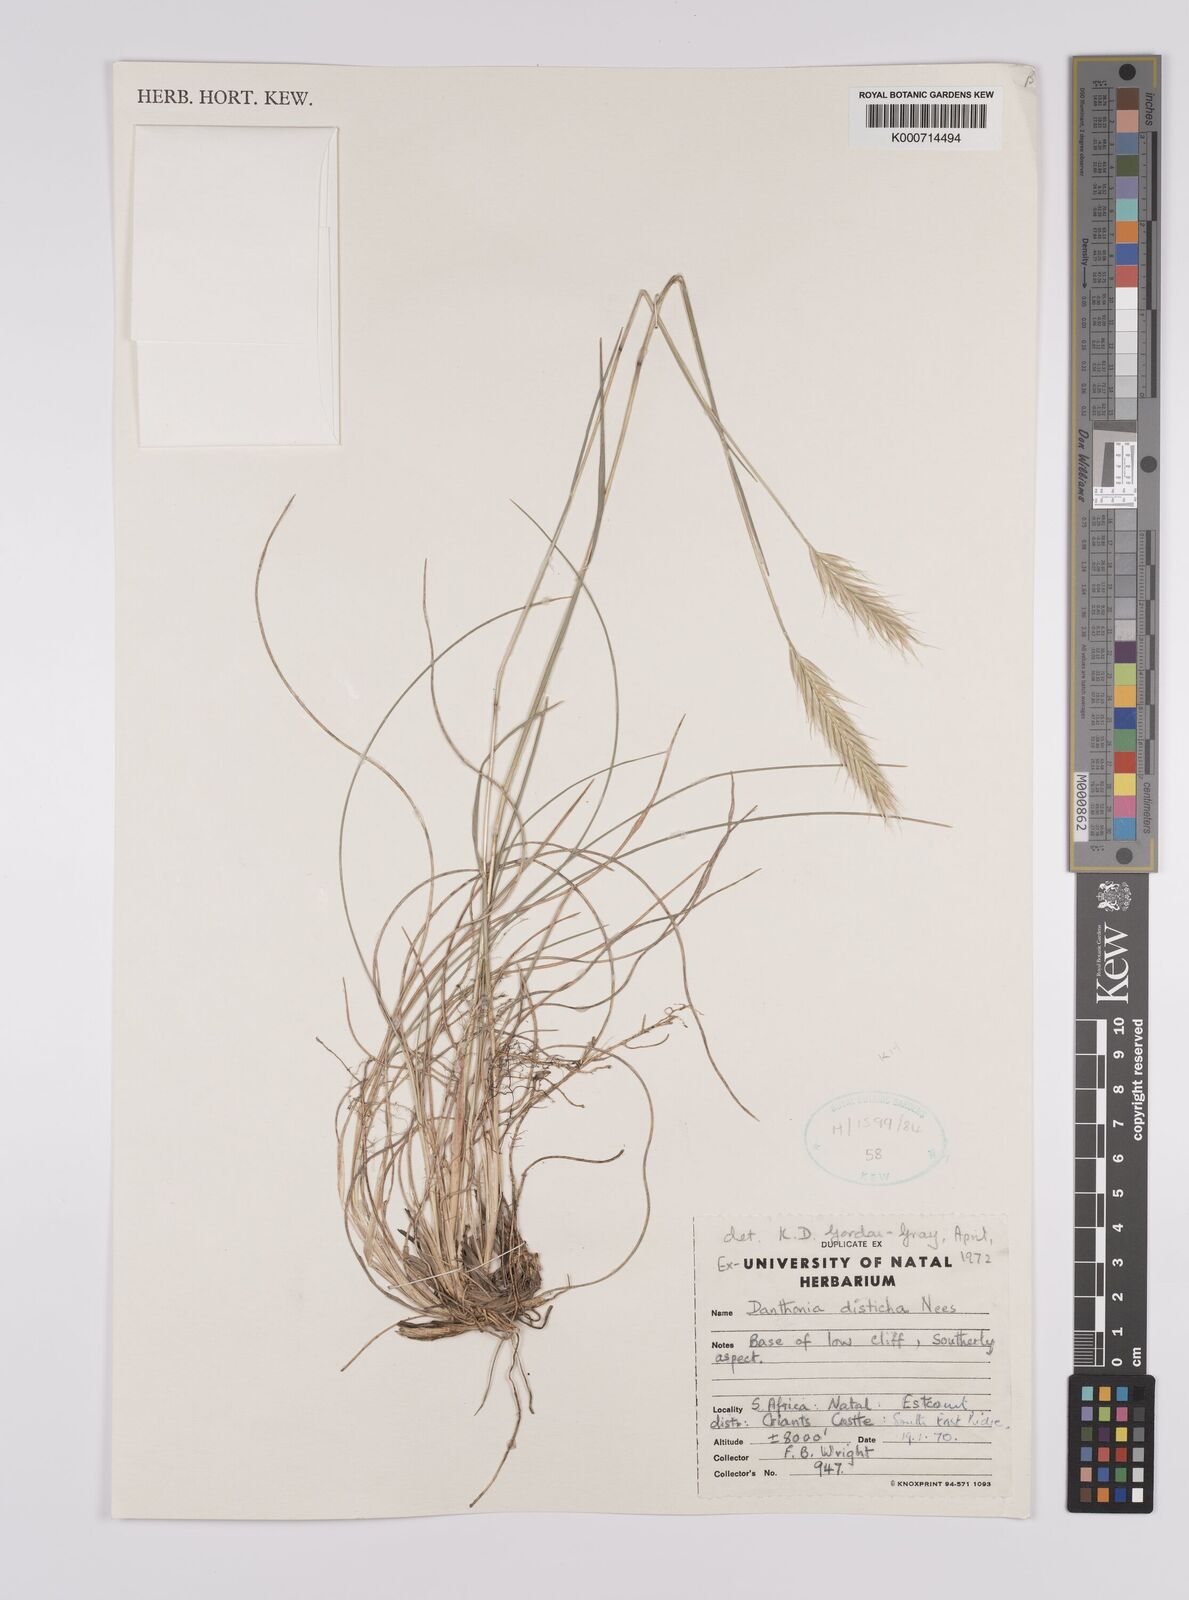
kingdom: Plantae
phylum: Tracheophyta
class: Liliopsida
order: Poales
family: Poaceae
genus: Tenaxia
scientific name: Tenaxia disticha
